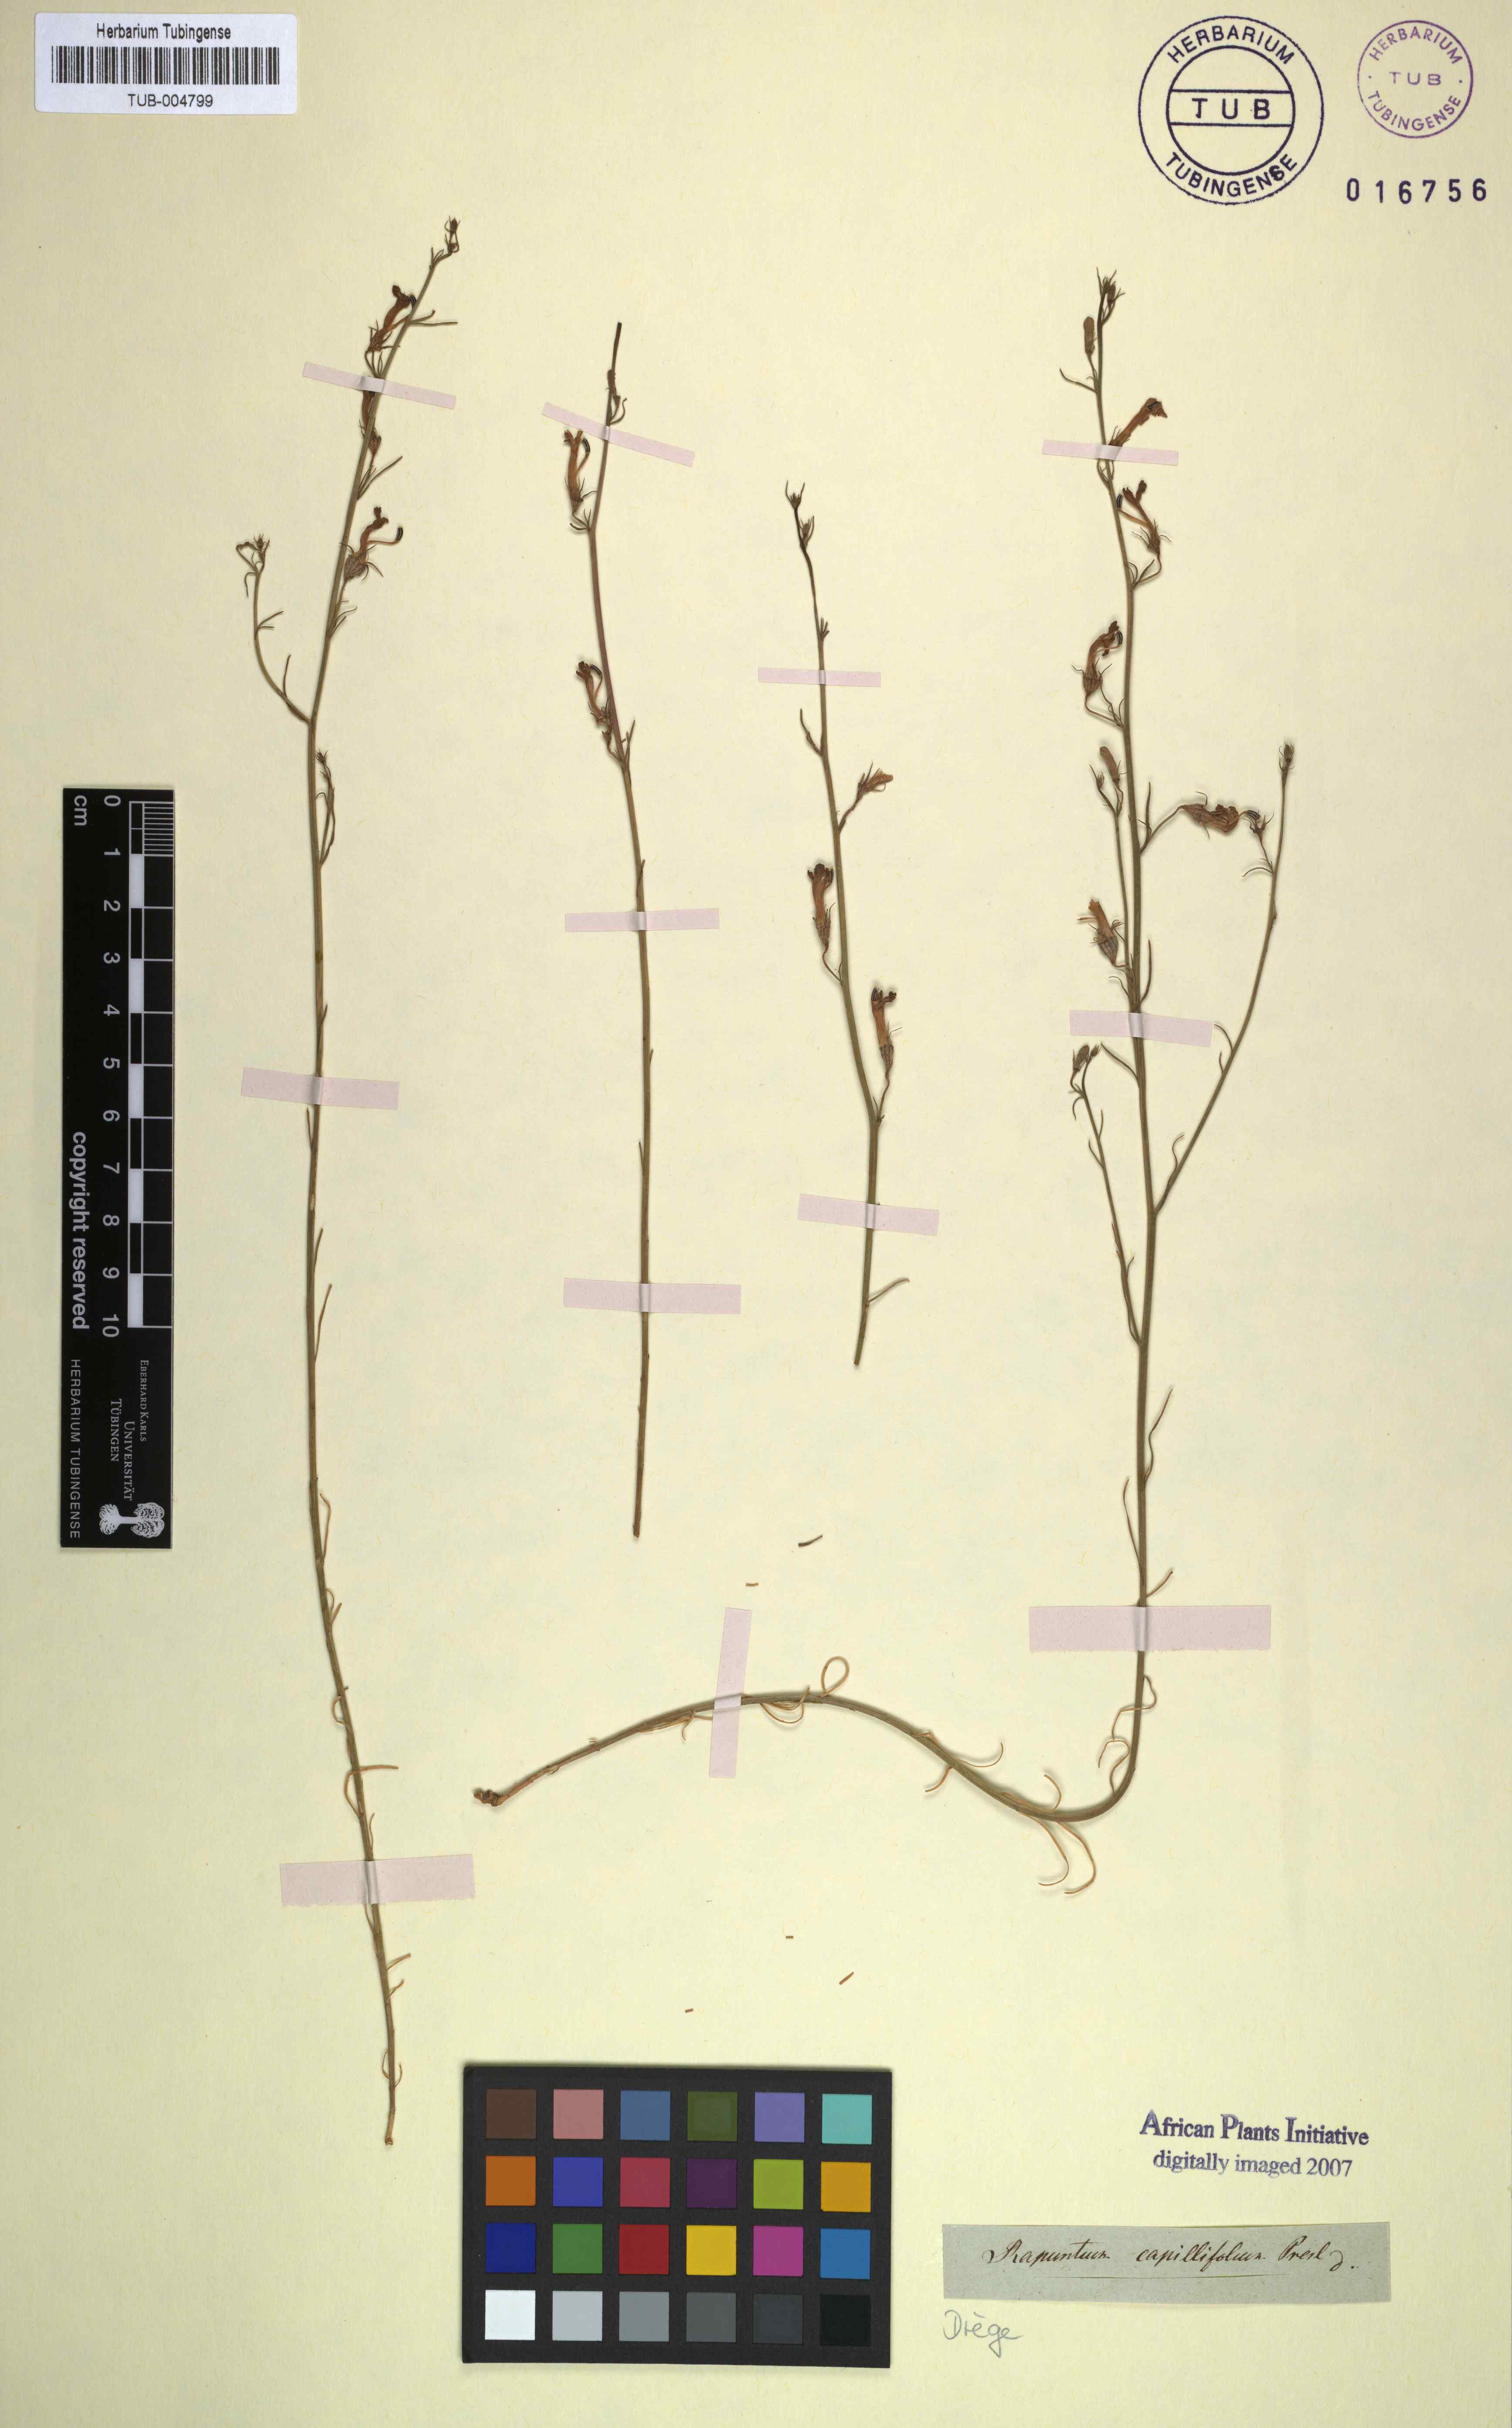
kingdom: Plantae
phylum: Tracheophyta
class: Magnoliopsida
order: Asterales
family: Campanulaceae
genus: Lobelia
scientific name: Lobelia capillifolia
